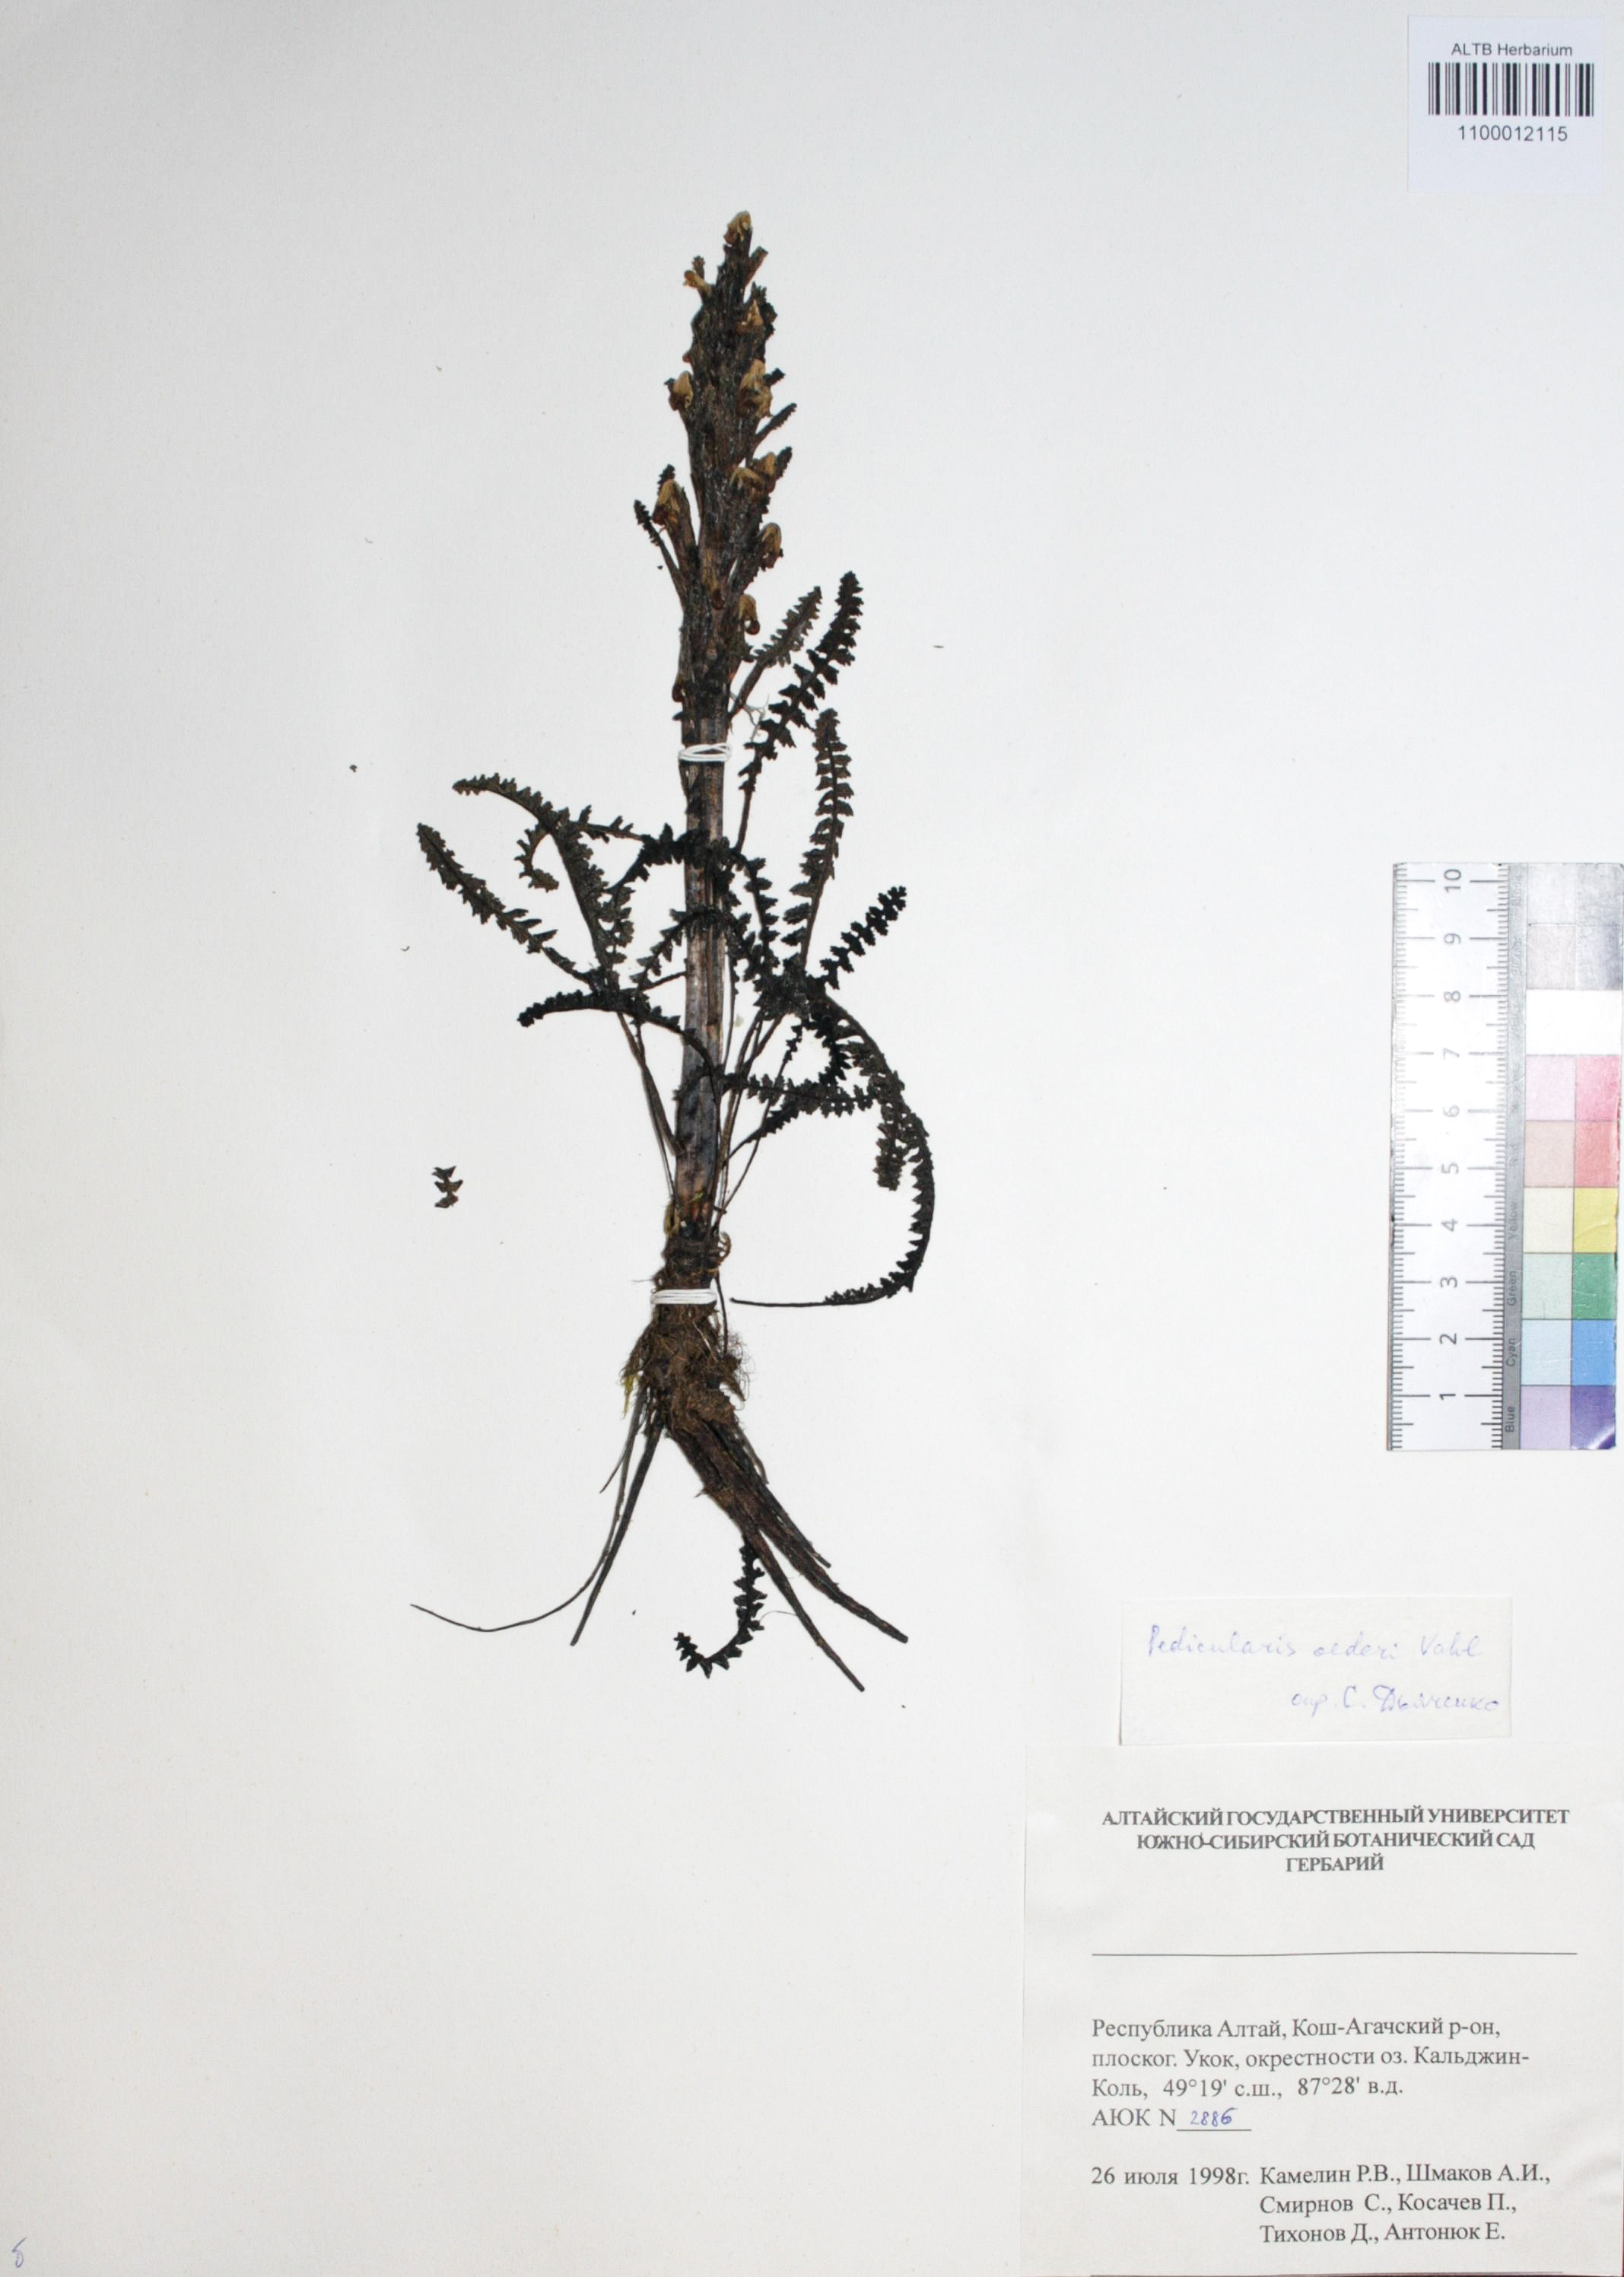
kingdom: Plantae
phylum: Tracheophyta
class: Magnoliopsida
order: Caryophyllales
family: Caryophyllaceae
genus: Silene
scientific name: Silene graminifolia
